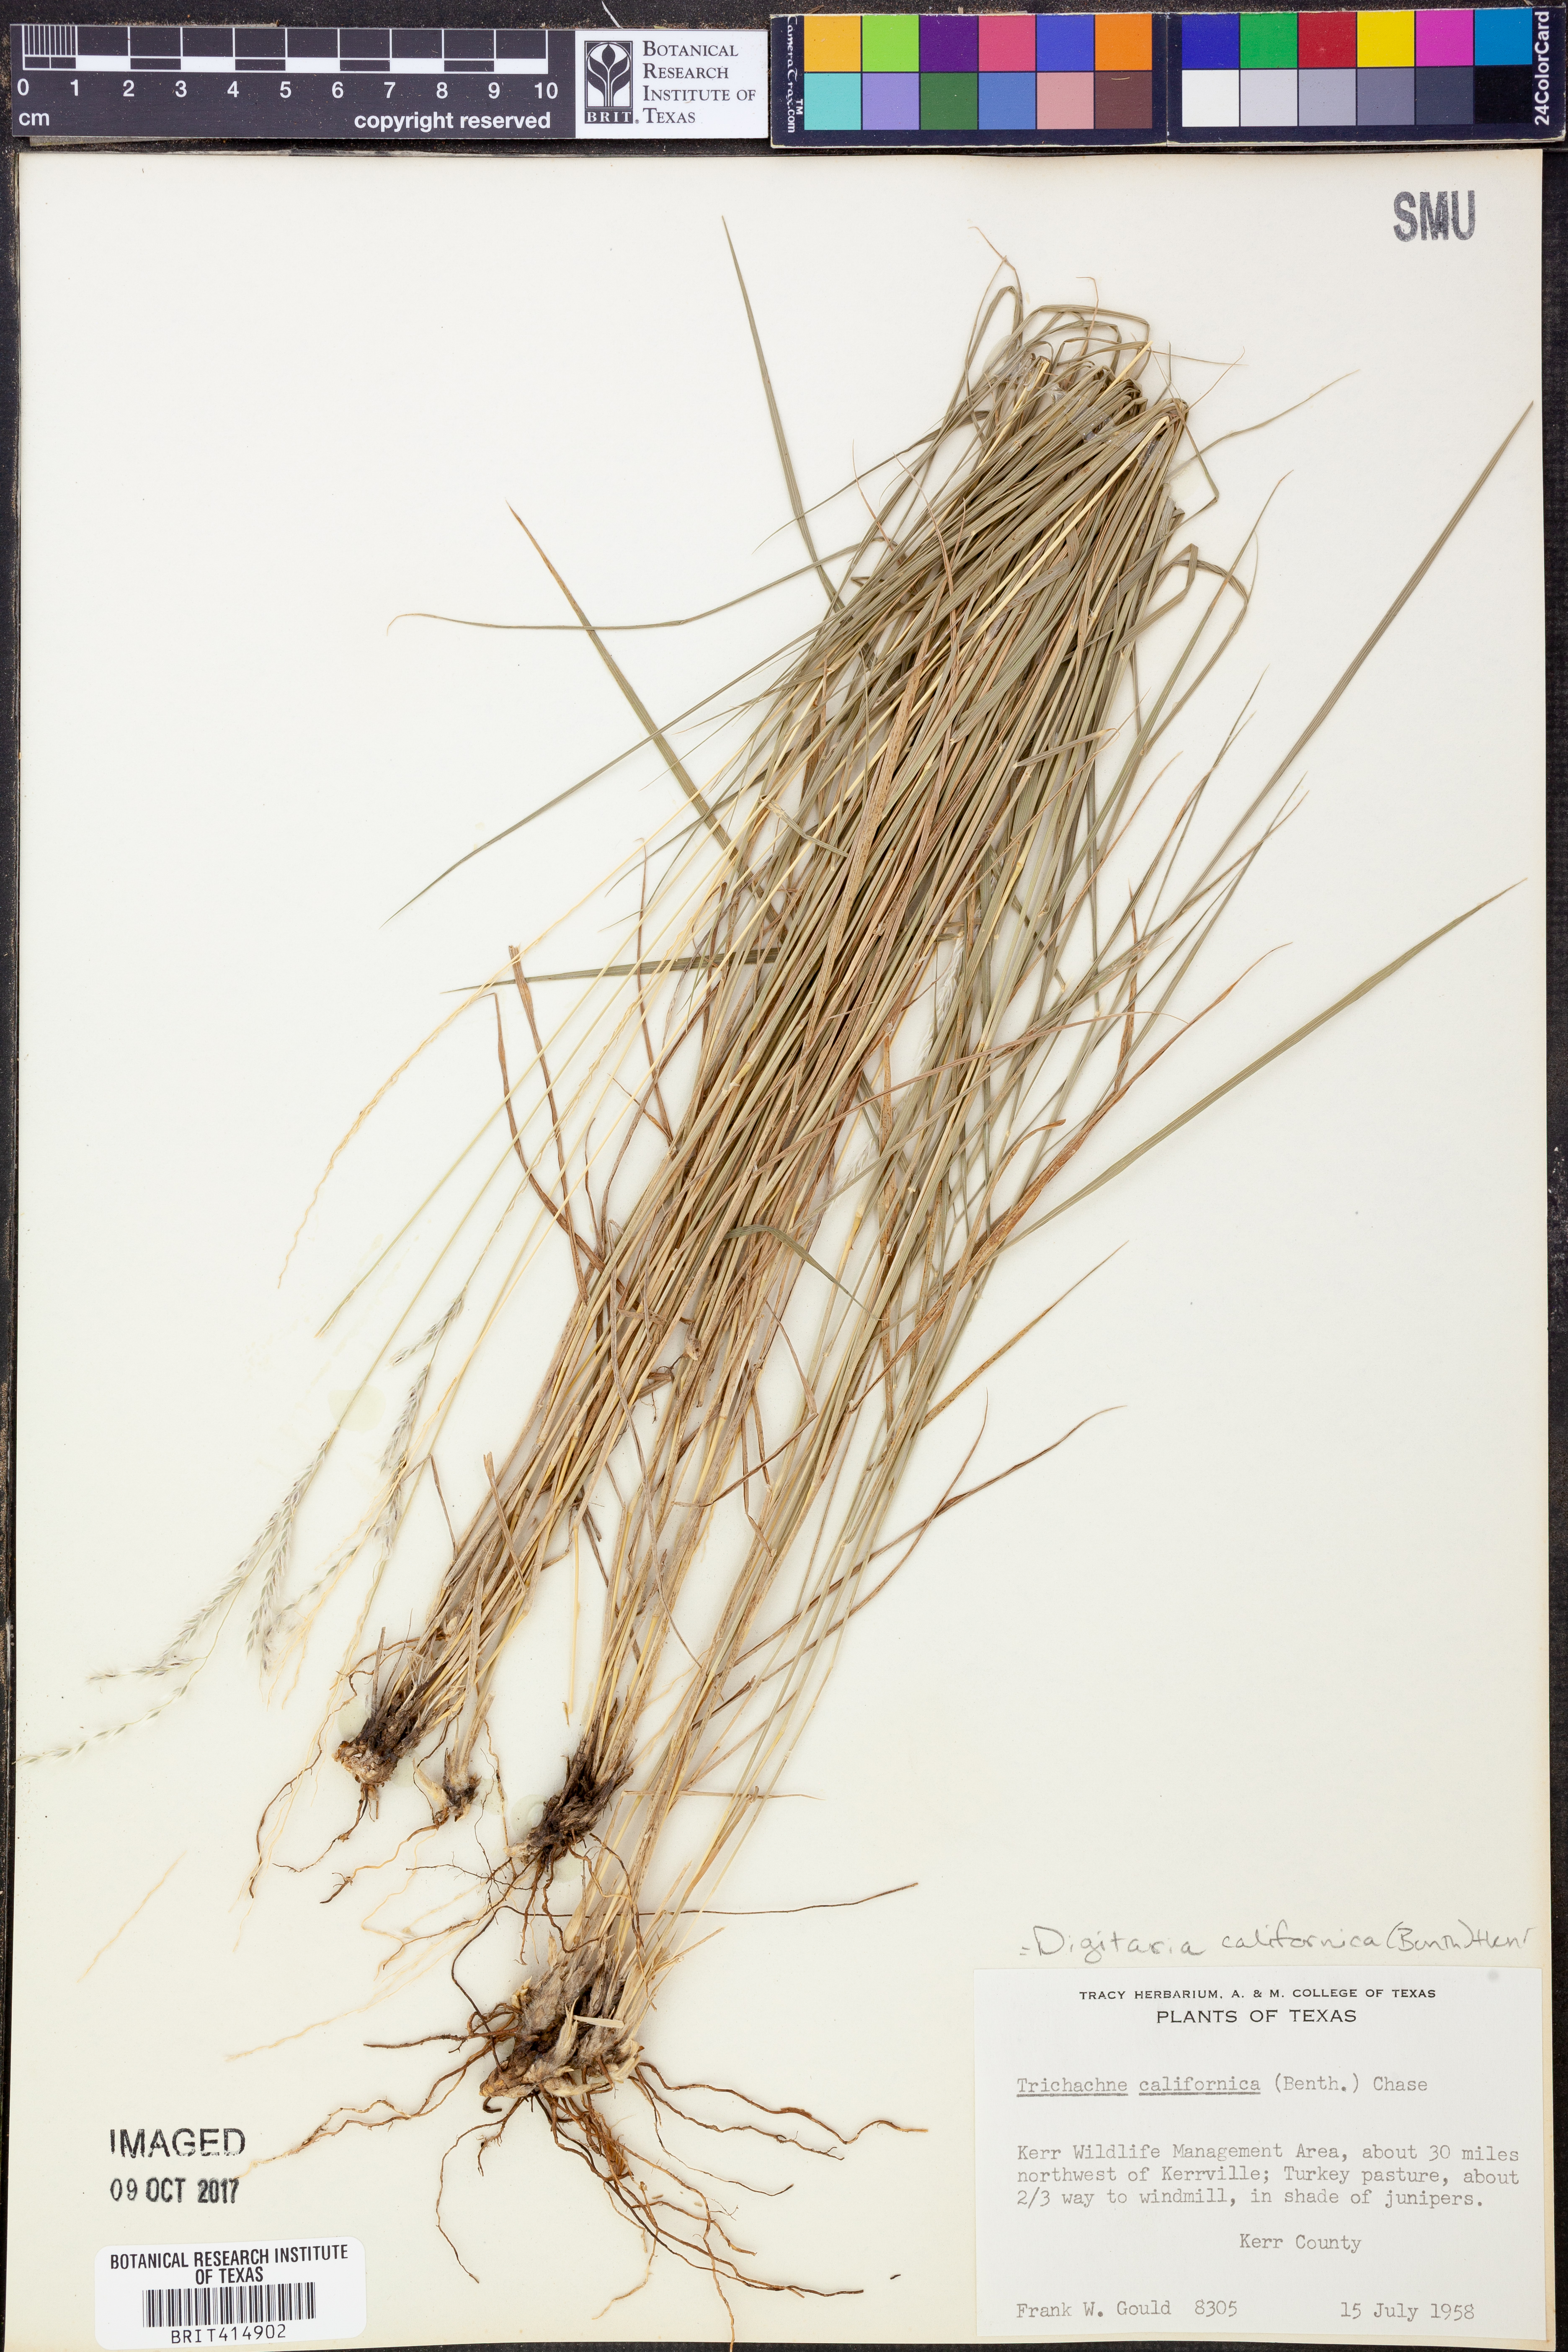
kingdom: Plantae
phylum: Tracheophyta
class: Liliopsida
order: Poales
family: Poaceae
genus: Digitaria
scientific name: Digitaria californica
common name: Arizona cottontop
